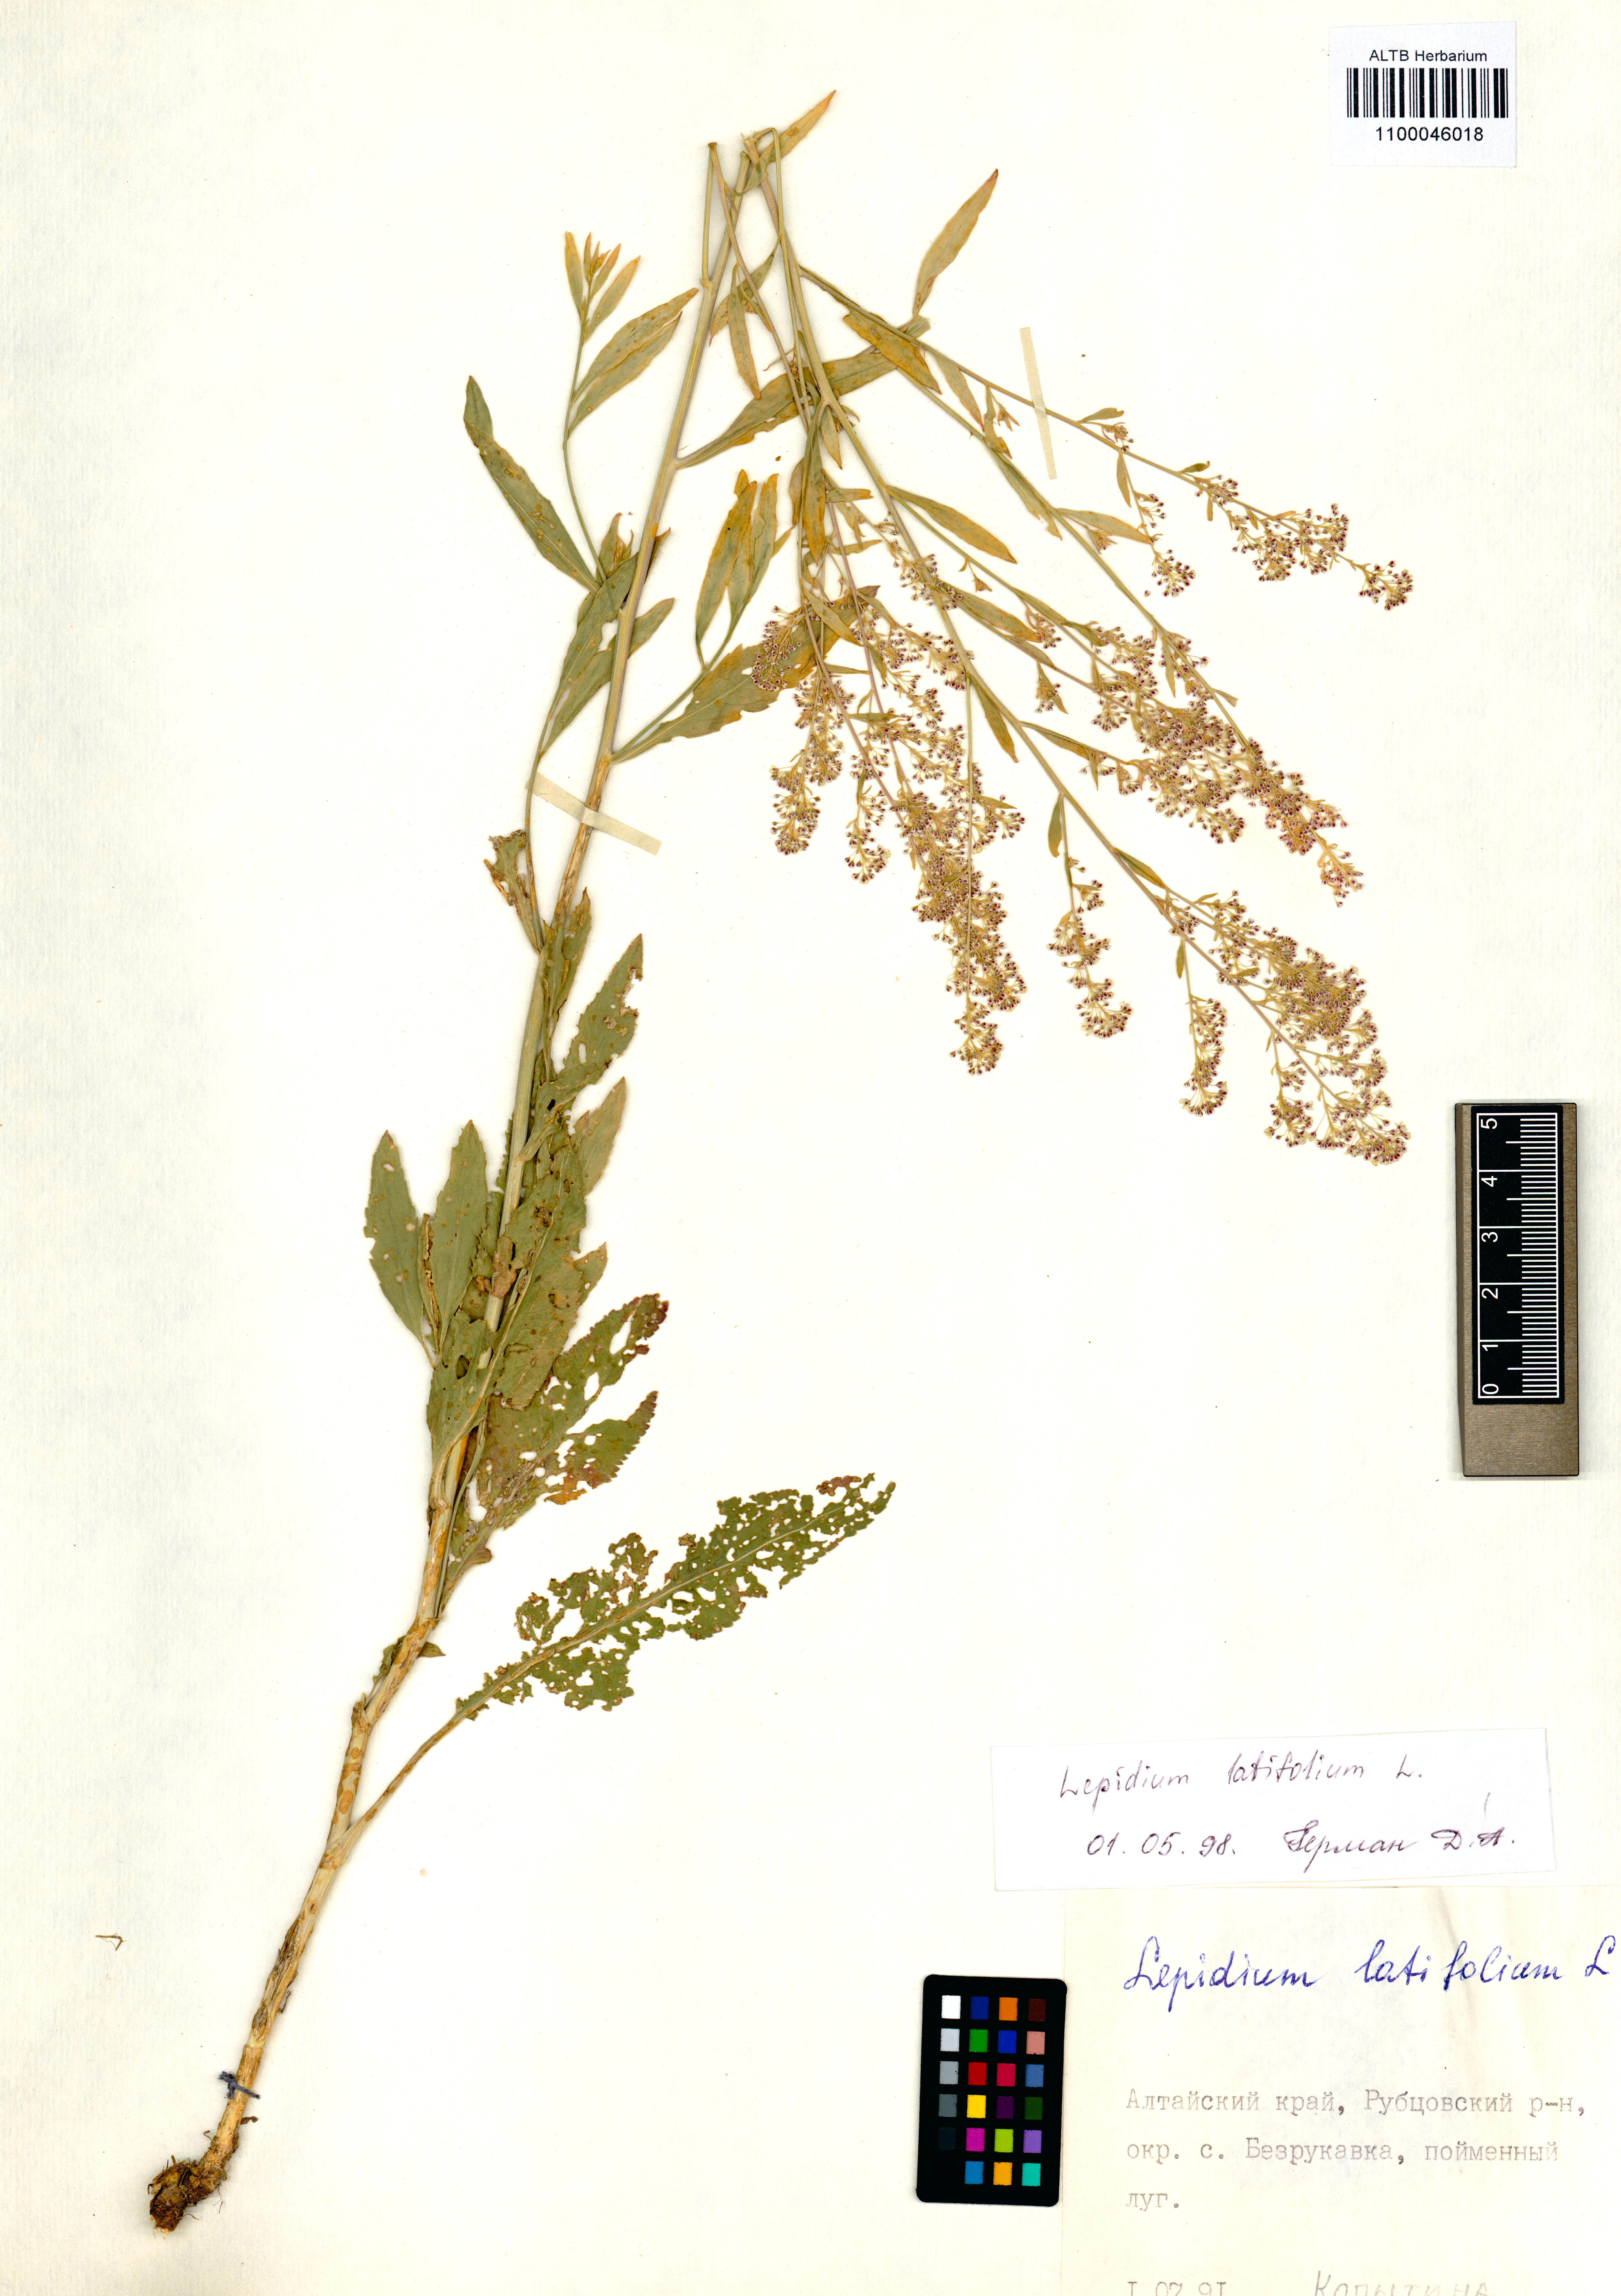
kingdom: Plantae
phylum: Tracheophyta
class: Magnoliopsida
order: Brassicales
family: Brassicaceae
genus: Lepidium
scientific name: Lepidium latifolium
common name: Dittander
